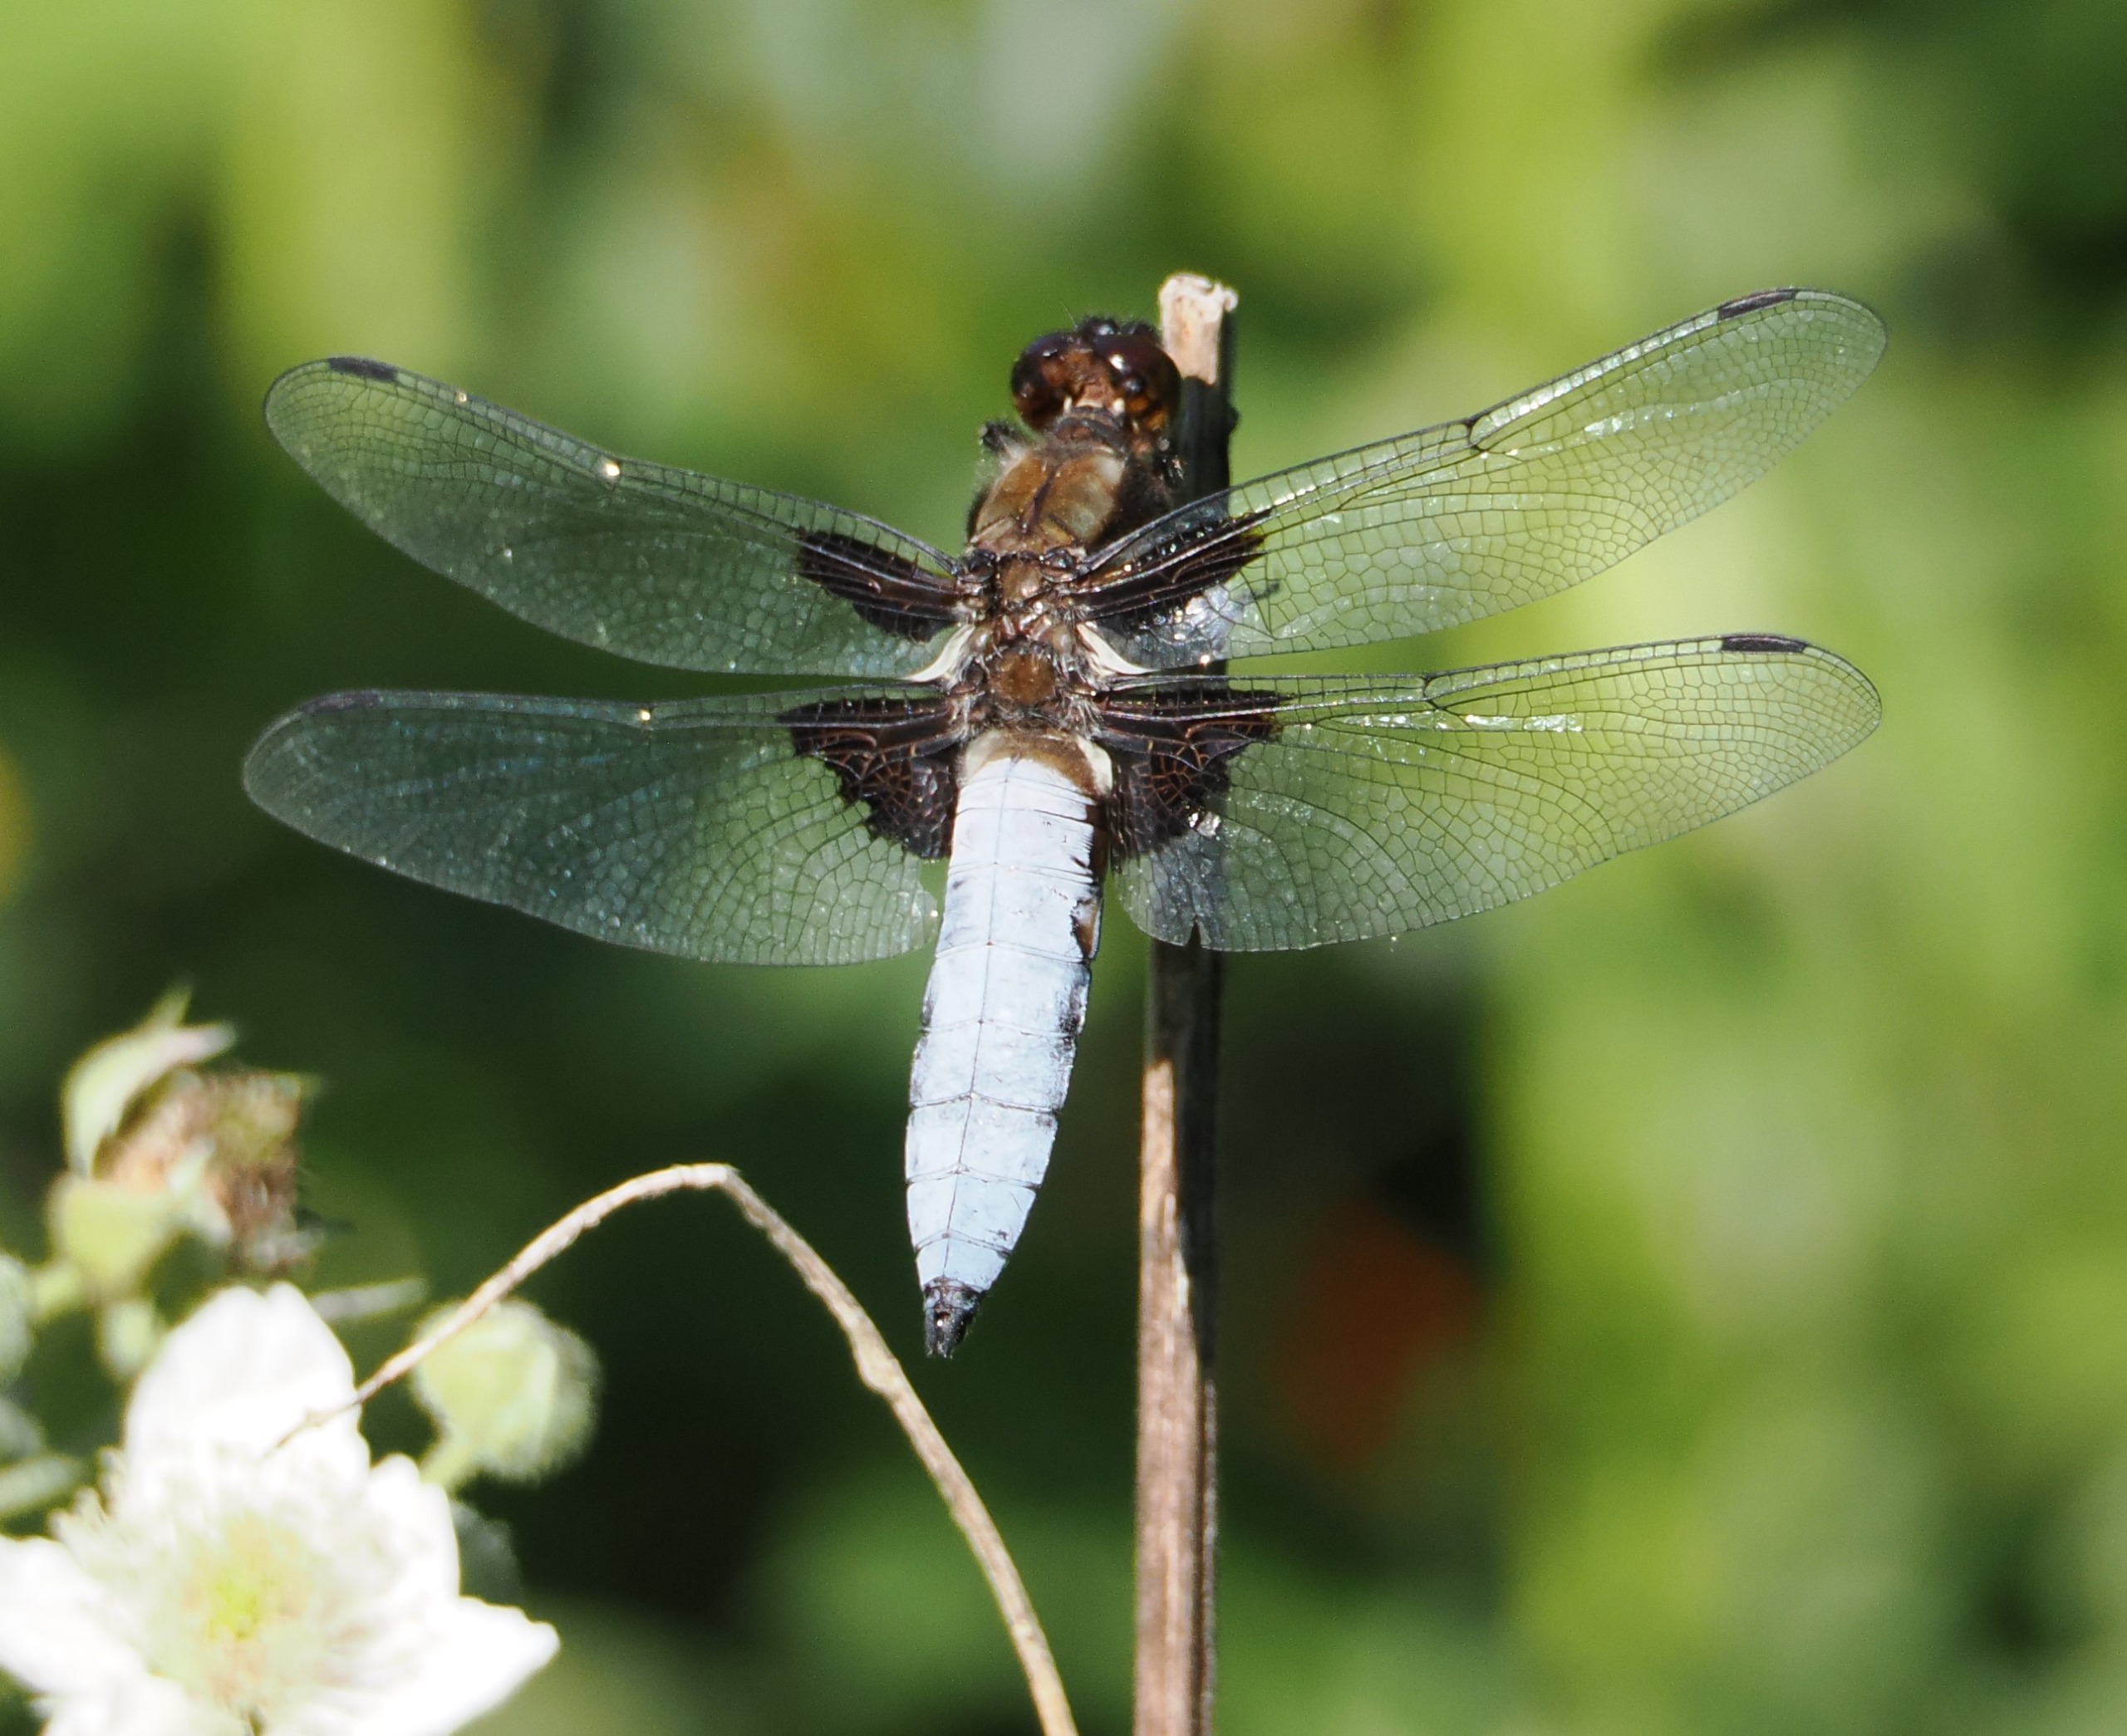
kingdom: Animalia
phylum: Arthropoda
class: Insecta
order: Odonata
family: Libellulidae
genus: Libellula
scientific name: Libellula depressa
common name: Blå libel
